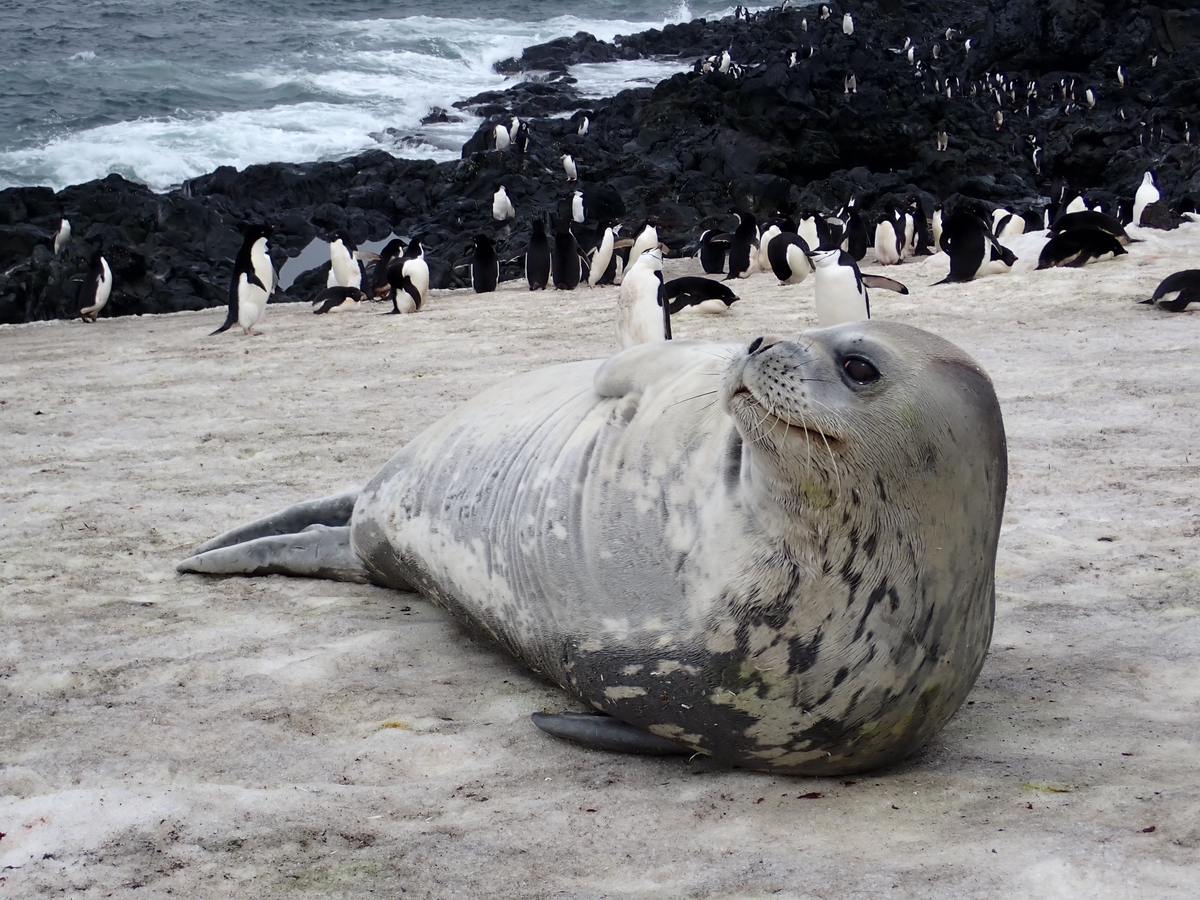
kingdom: Animalia
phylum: Chordata
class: Mammalia
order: Carnivora
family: Phocidae
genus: Leptonychotes
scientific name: Leptonychotes weddellii
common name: Weddell Seal
